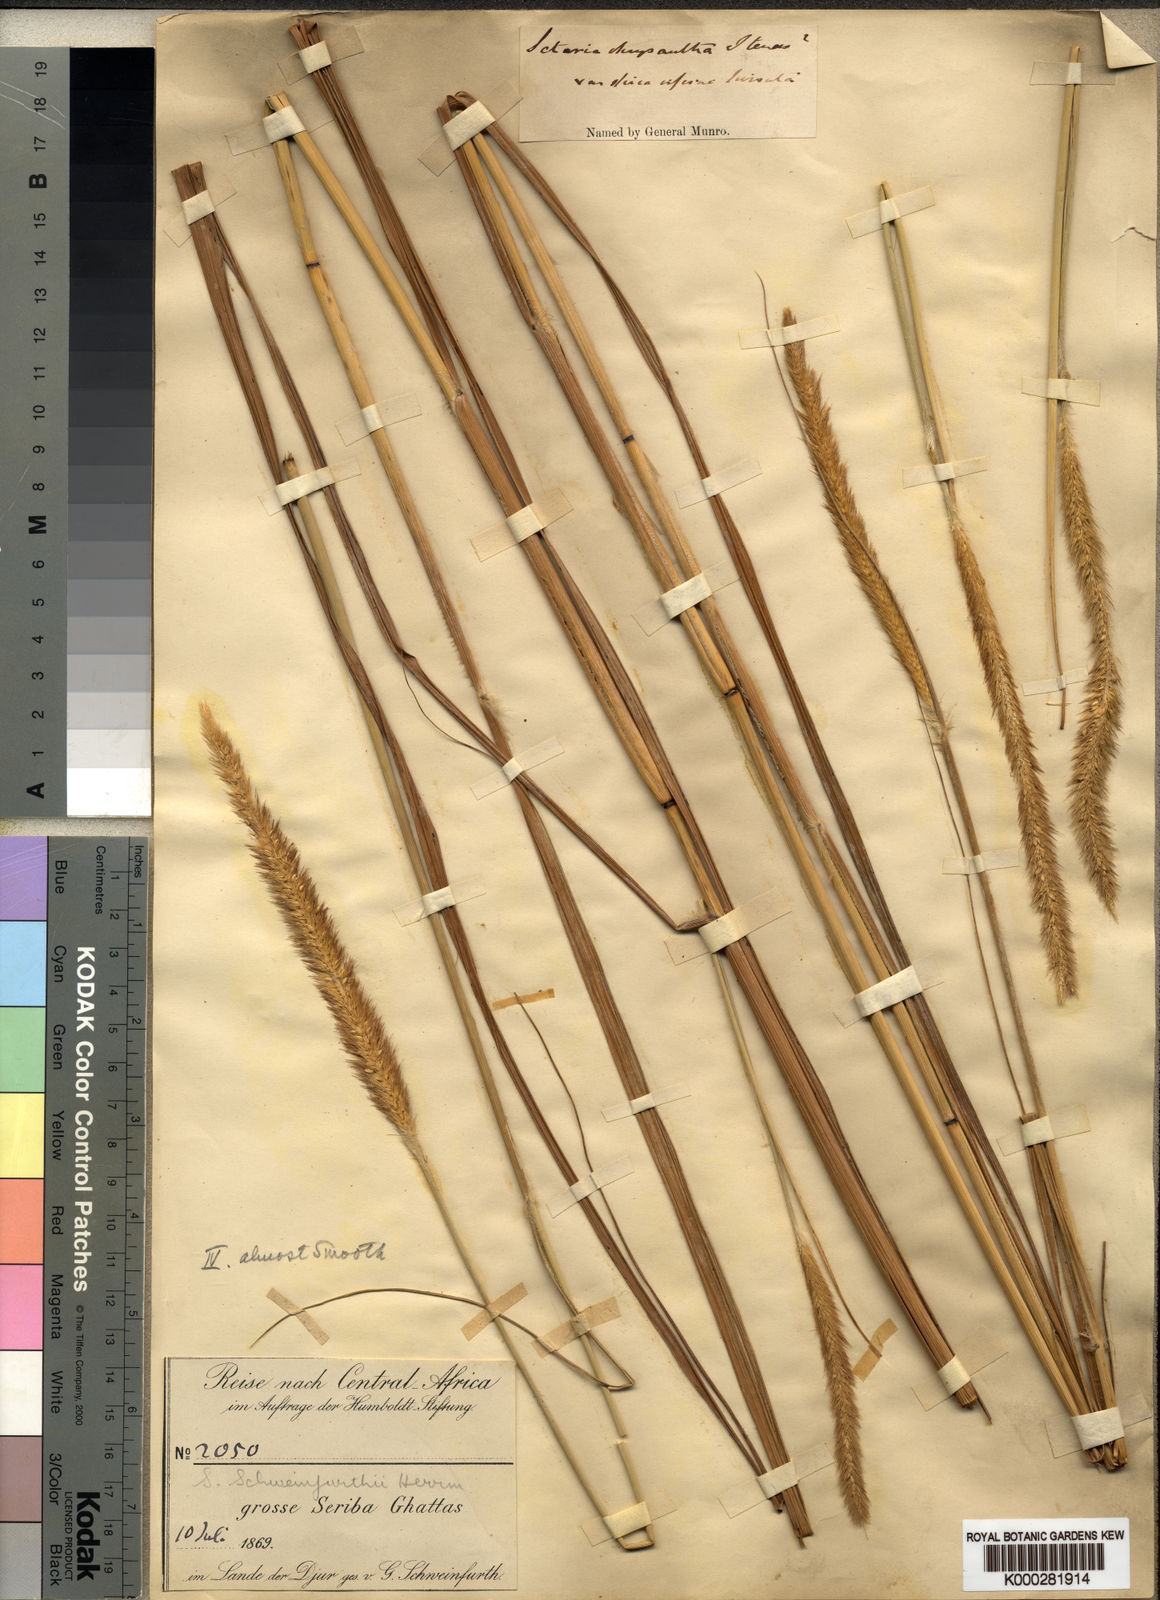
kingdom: Plantae
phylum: Tracheophyta
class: Liliopsida
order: Poales
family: Poaceae
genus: Setaria
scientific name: Setaria restioidea
